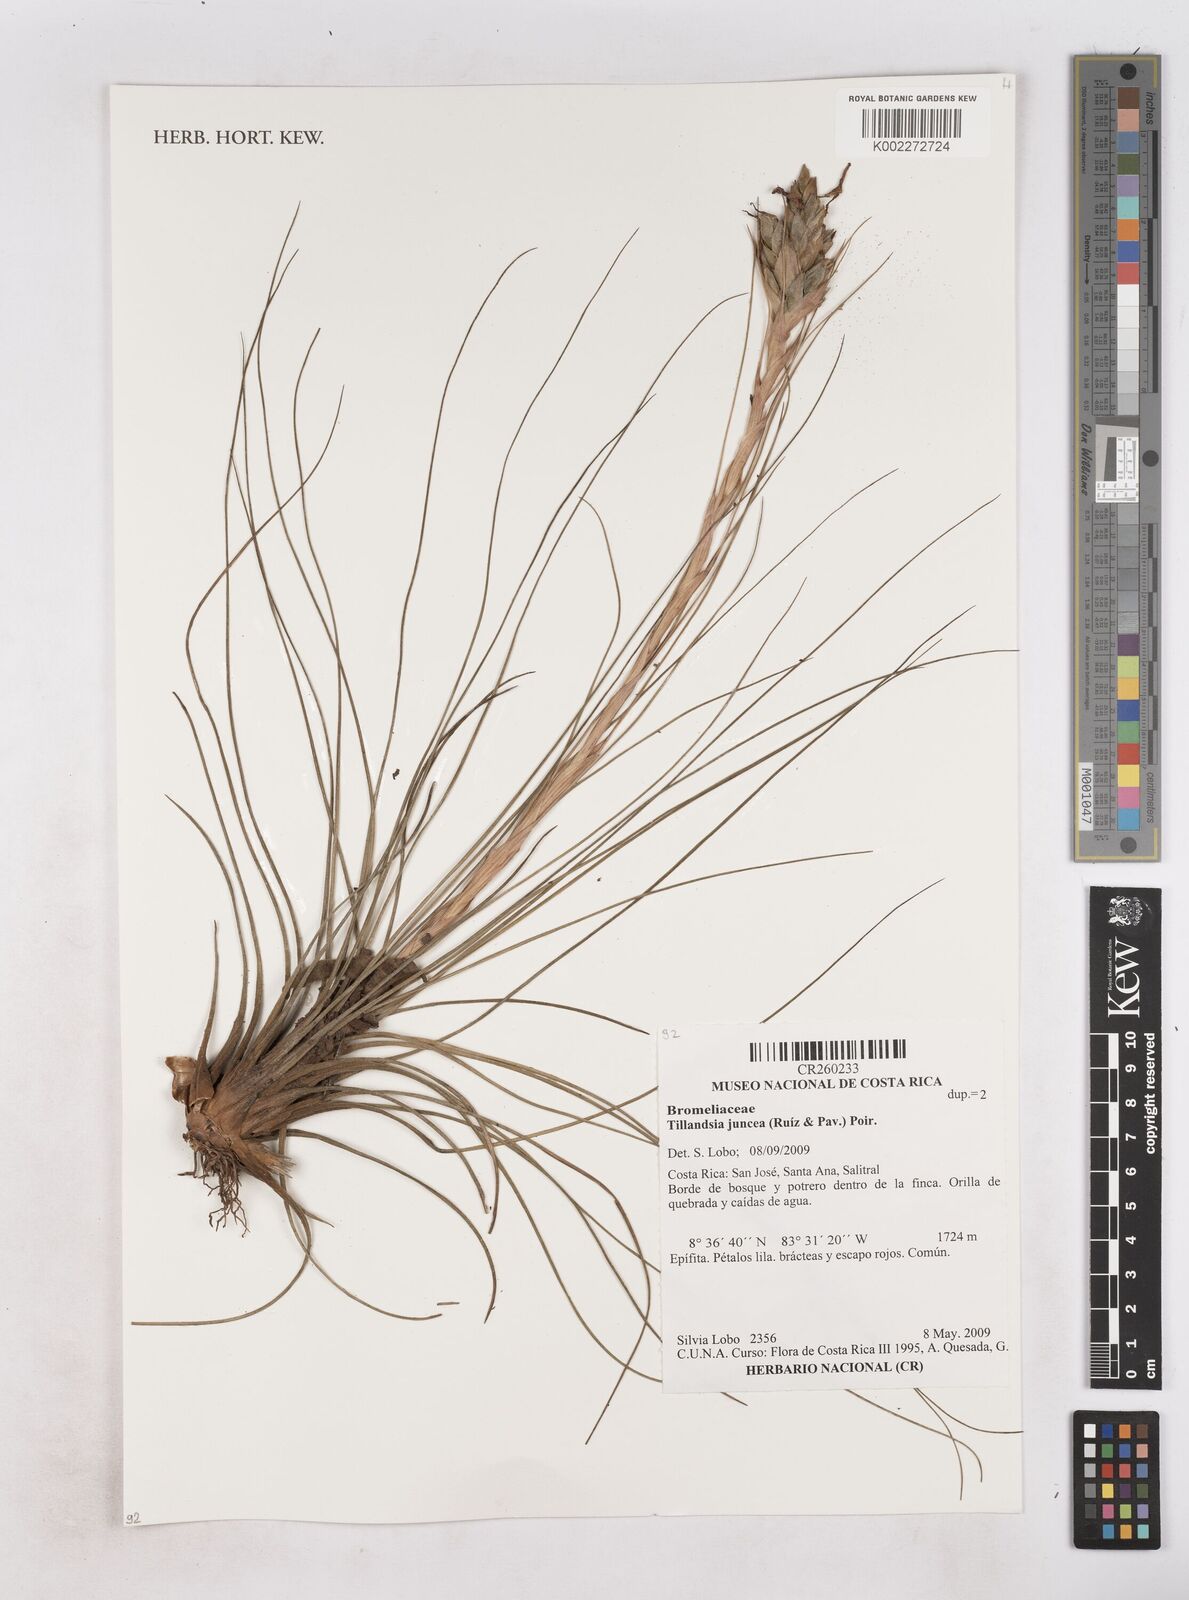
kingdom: Plantae
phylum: Tracheophyta
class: Liliopsida
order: Poales
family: Bromeliaceae
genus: Tillandsia
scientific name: Tillandsia juncea
